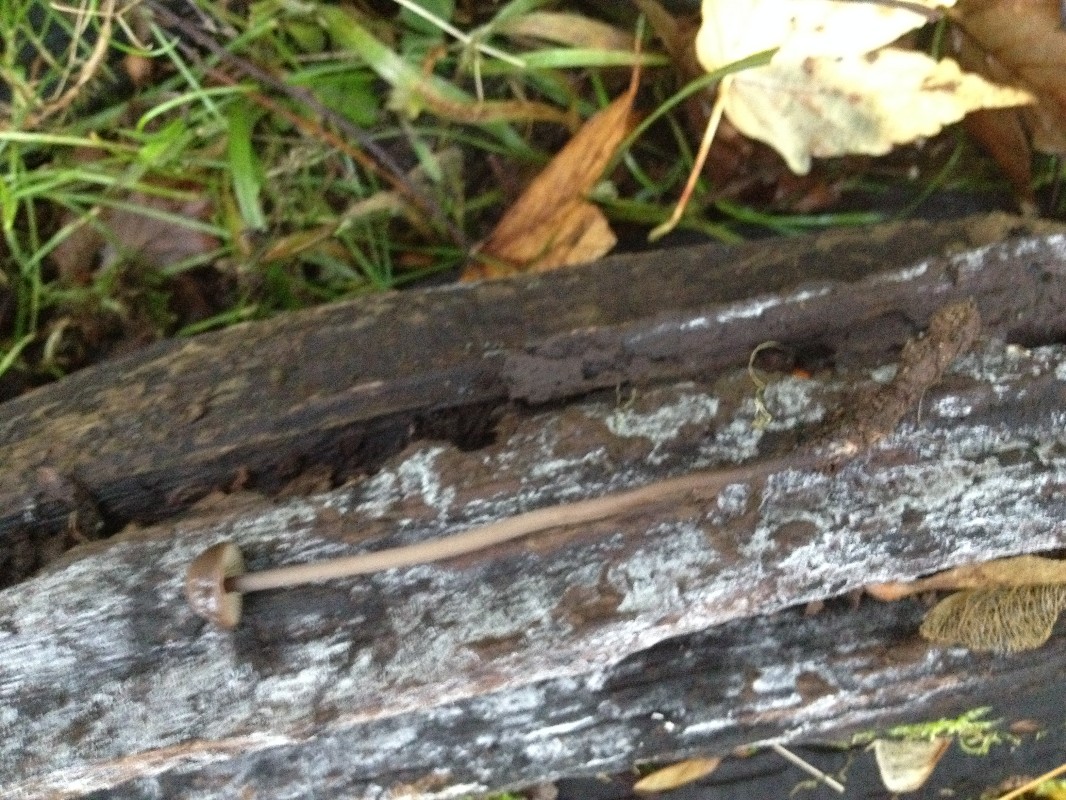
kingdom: Fungi
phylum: Basidiomycota
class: Agaricomycetes
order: Agaricales
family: Omphalotaceae
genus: Mycetinis
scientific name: Mycetinis alliaceus
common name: stor løghat
